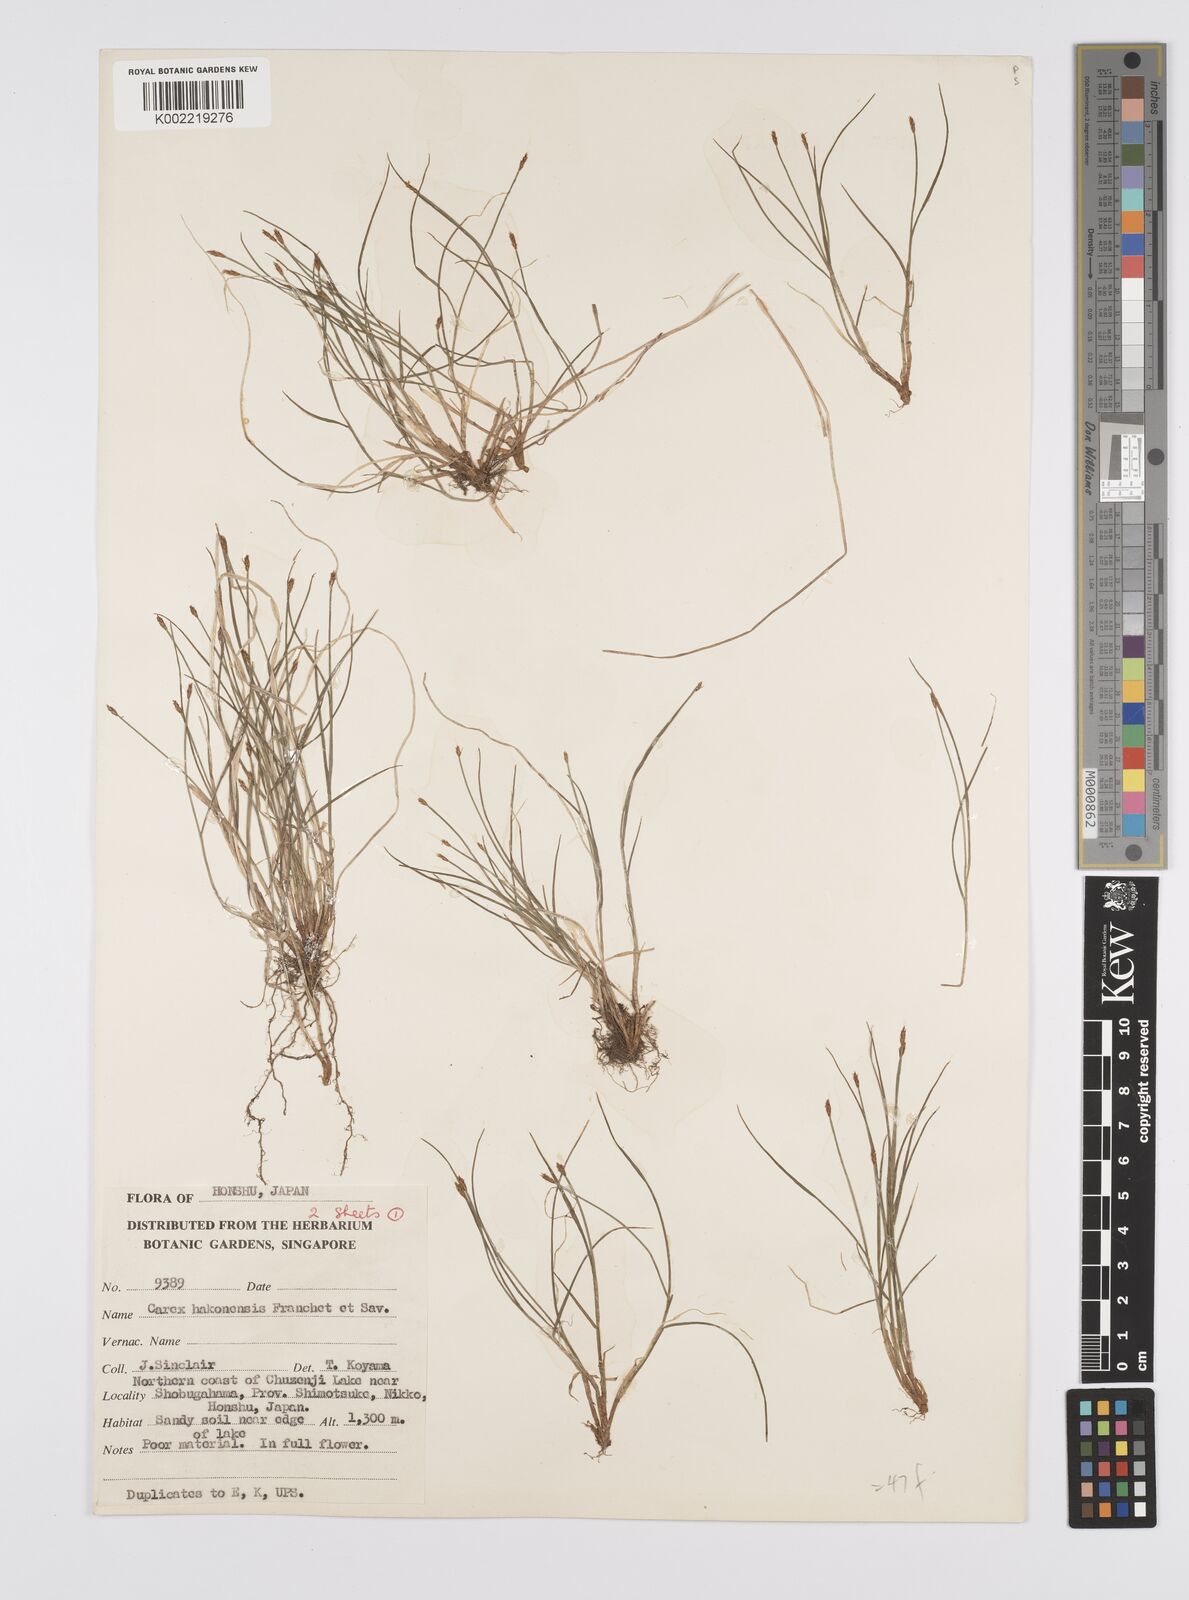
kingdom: Plantae
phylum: Tracheophyta
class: Liliopsida
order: Poales
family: Cyperaceae
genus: Carex
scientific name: Carex onoei
